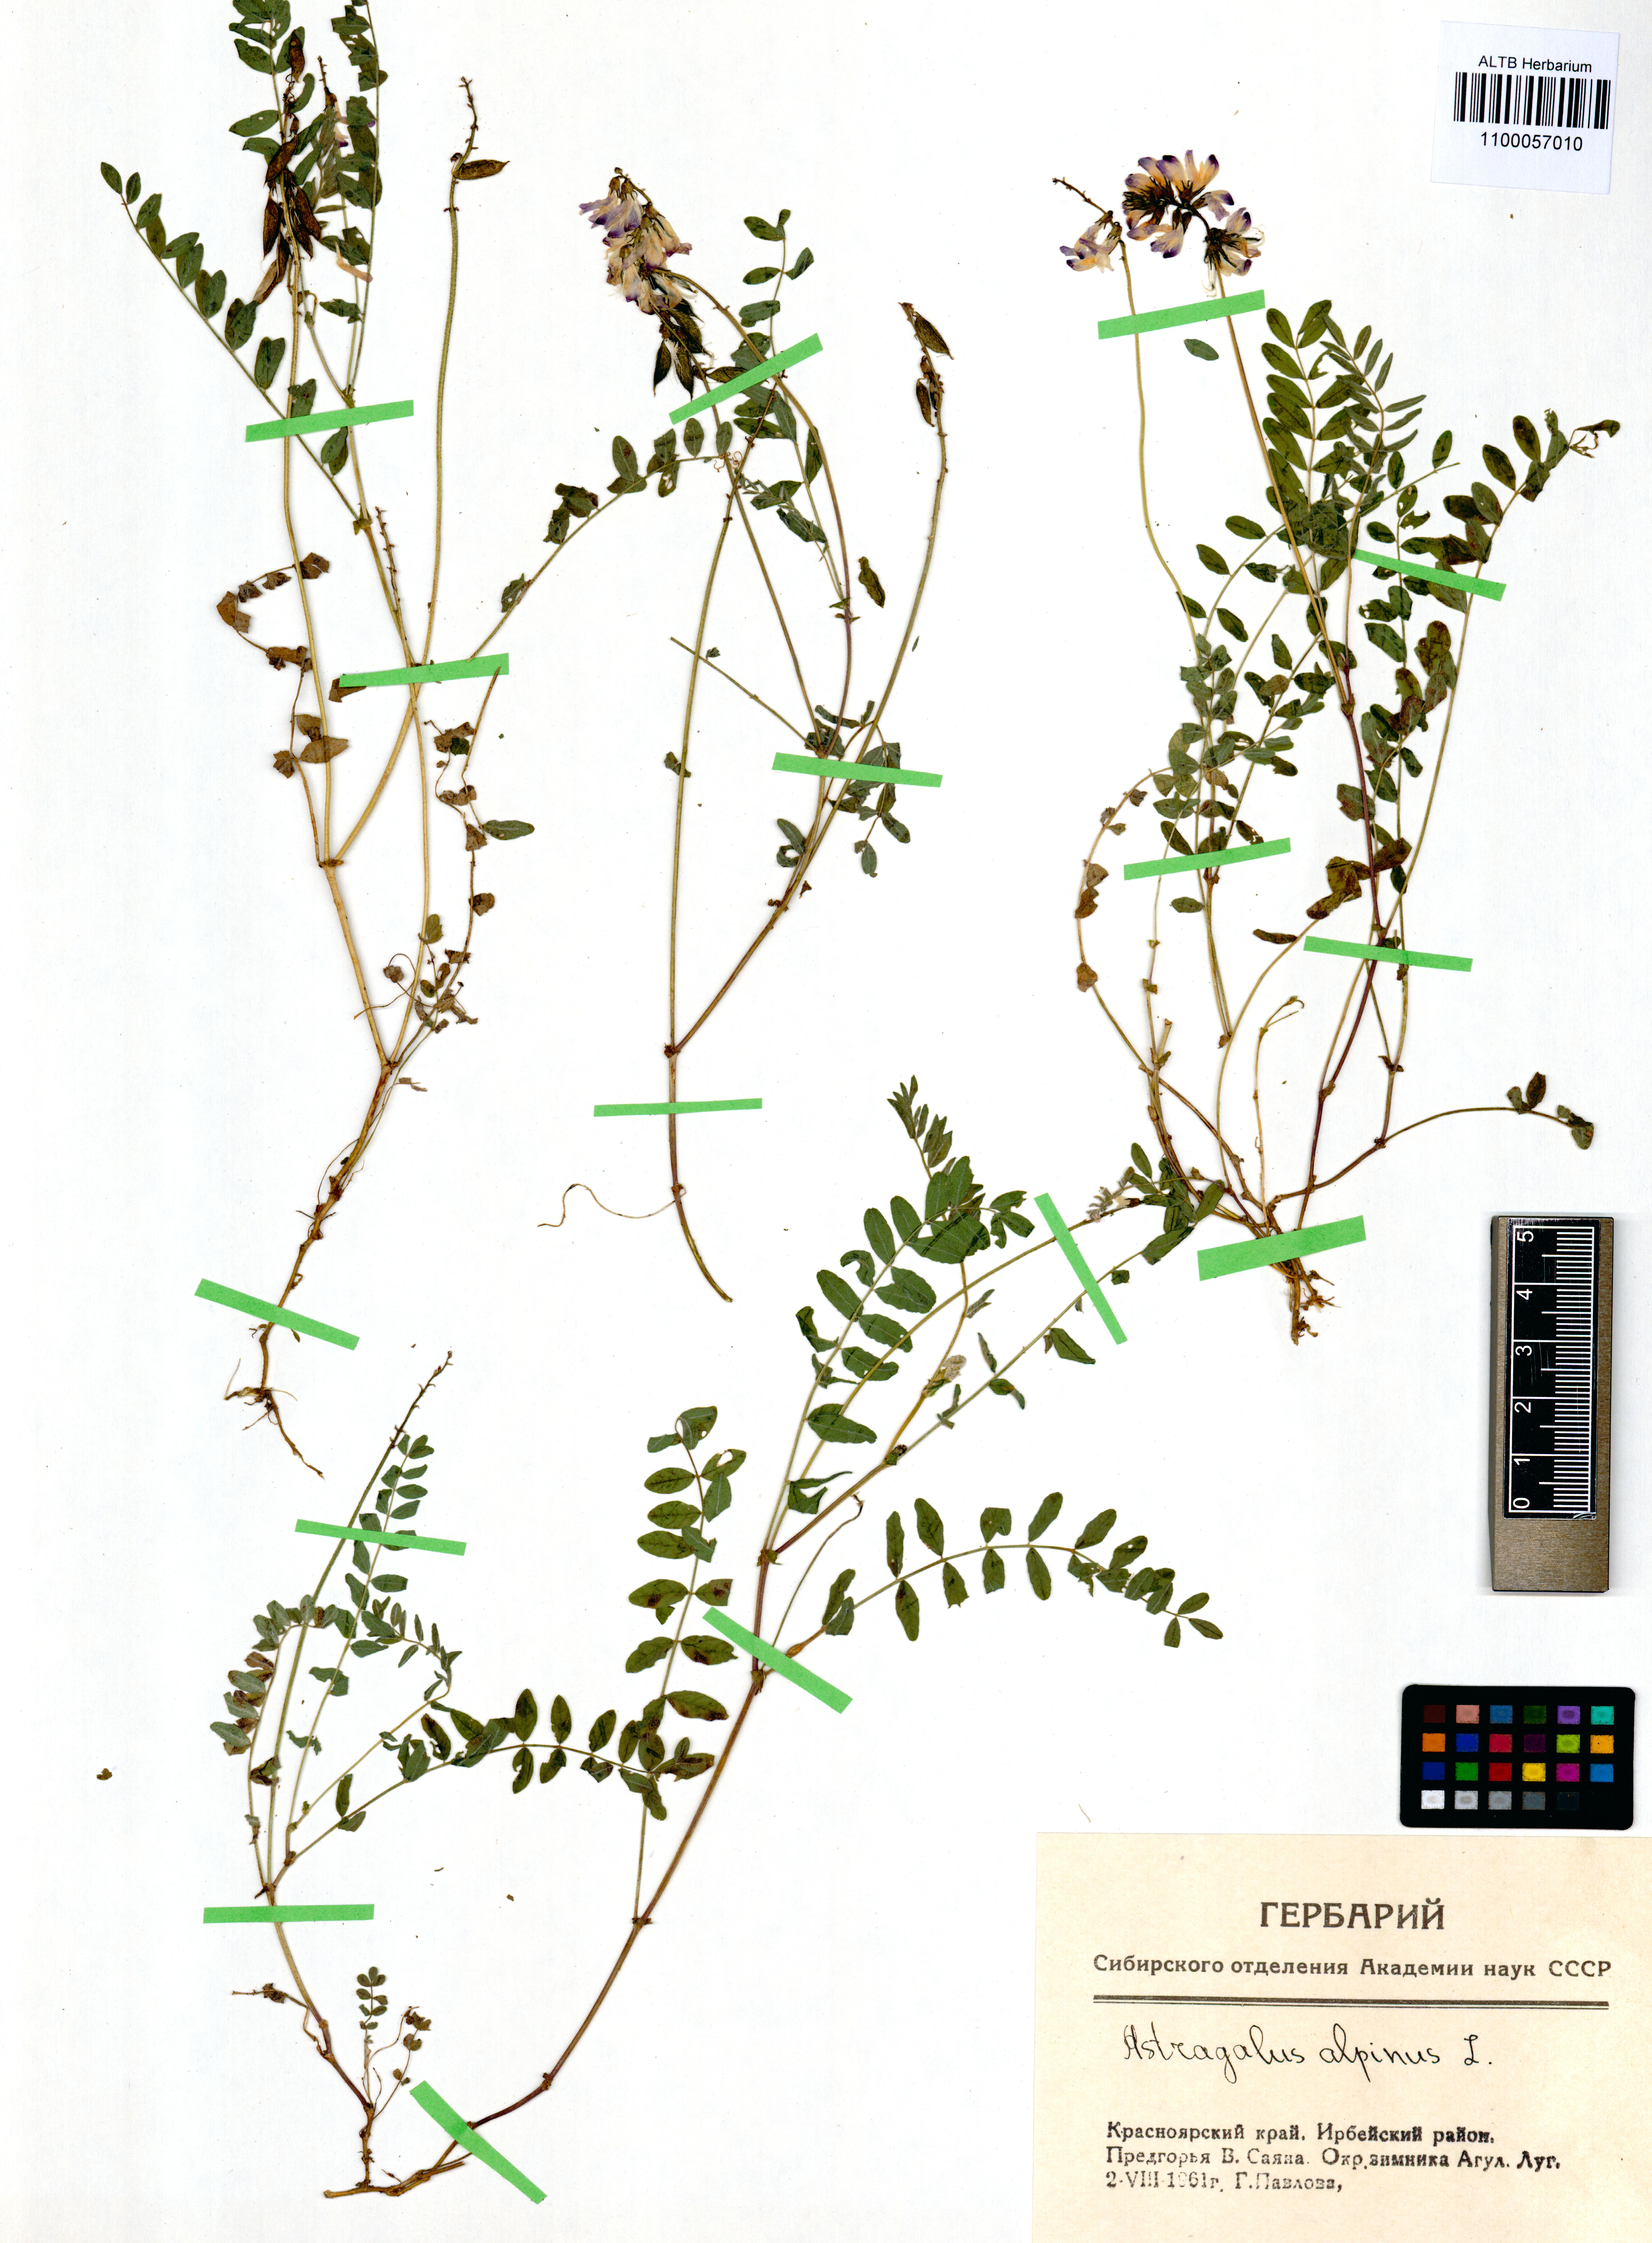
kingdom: Plantae
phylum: Tracheophyta
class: Magnoliopsida
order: Fabales
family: Fabaceae
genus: Astragalus
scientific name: Astragalus alpinus
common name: Alpine milk-vetch
